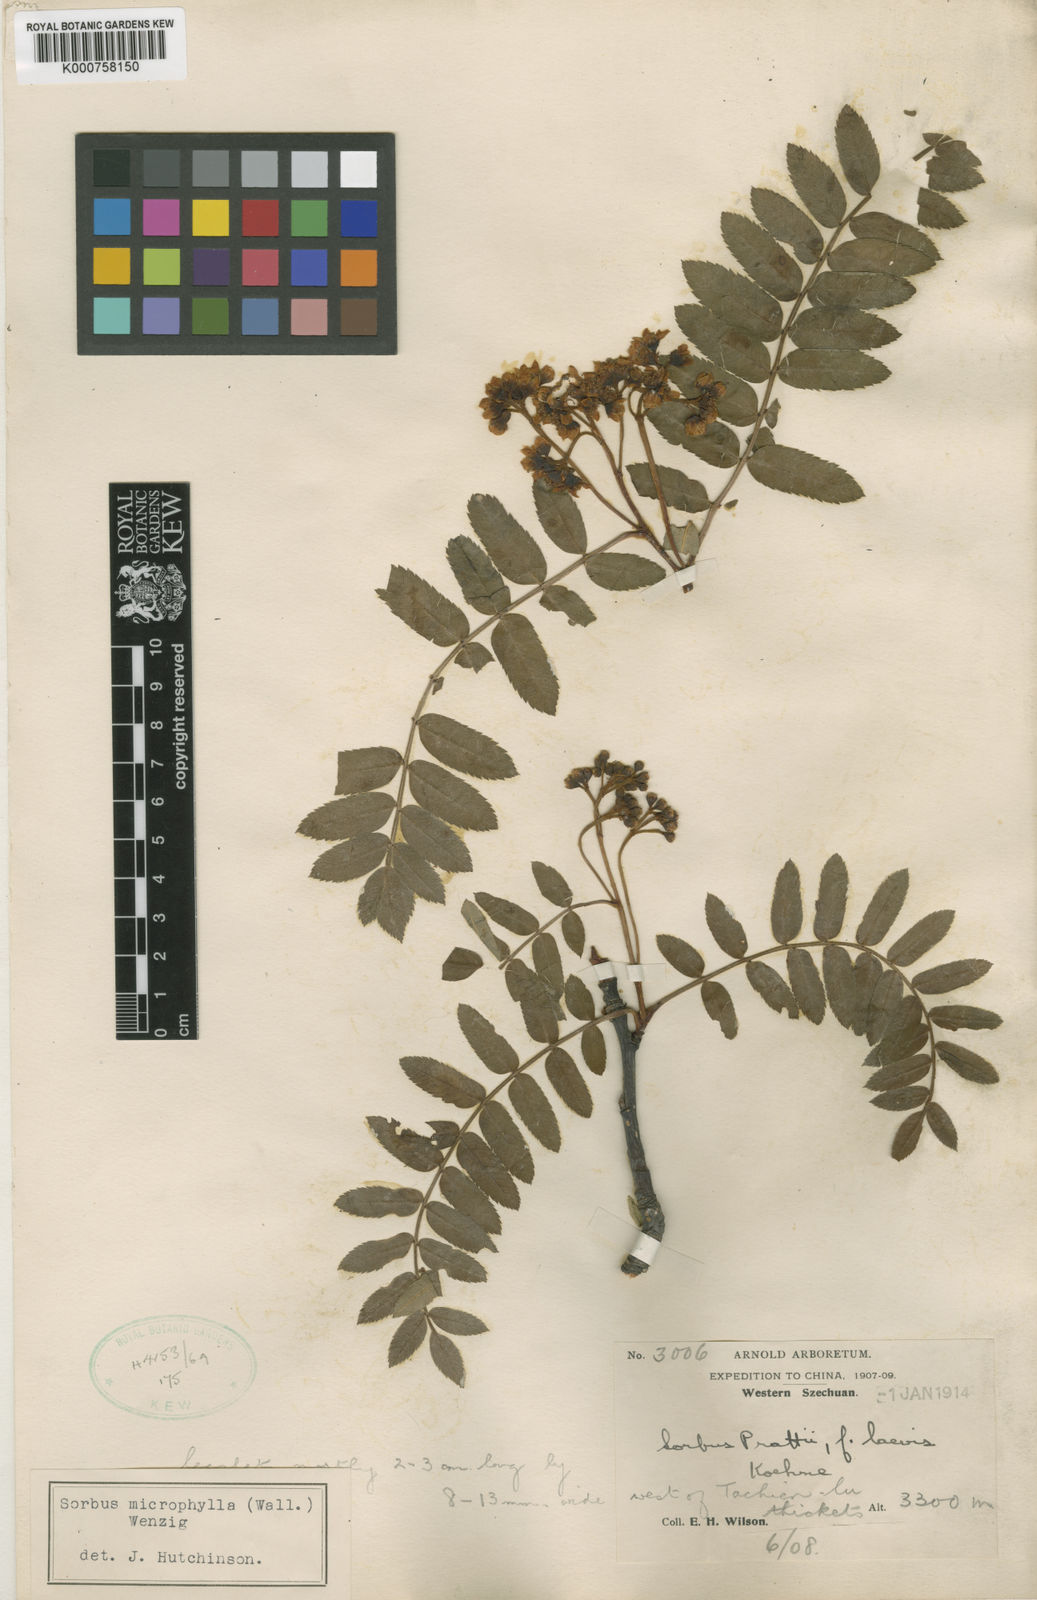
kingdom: Plantae
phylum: Tracheophyta
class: Magnoliopsida
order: Rosales
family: Rosaceae
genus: Sorbus
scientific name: Sorbus prattii
